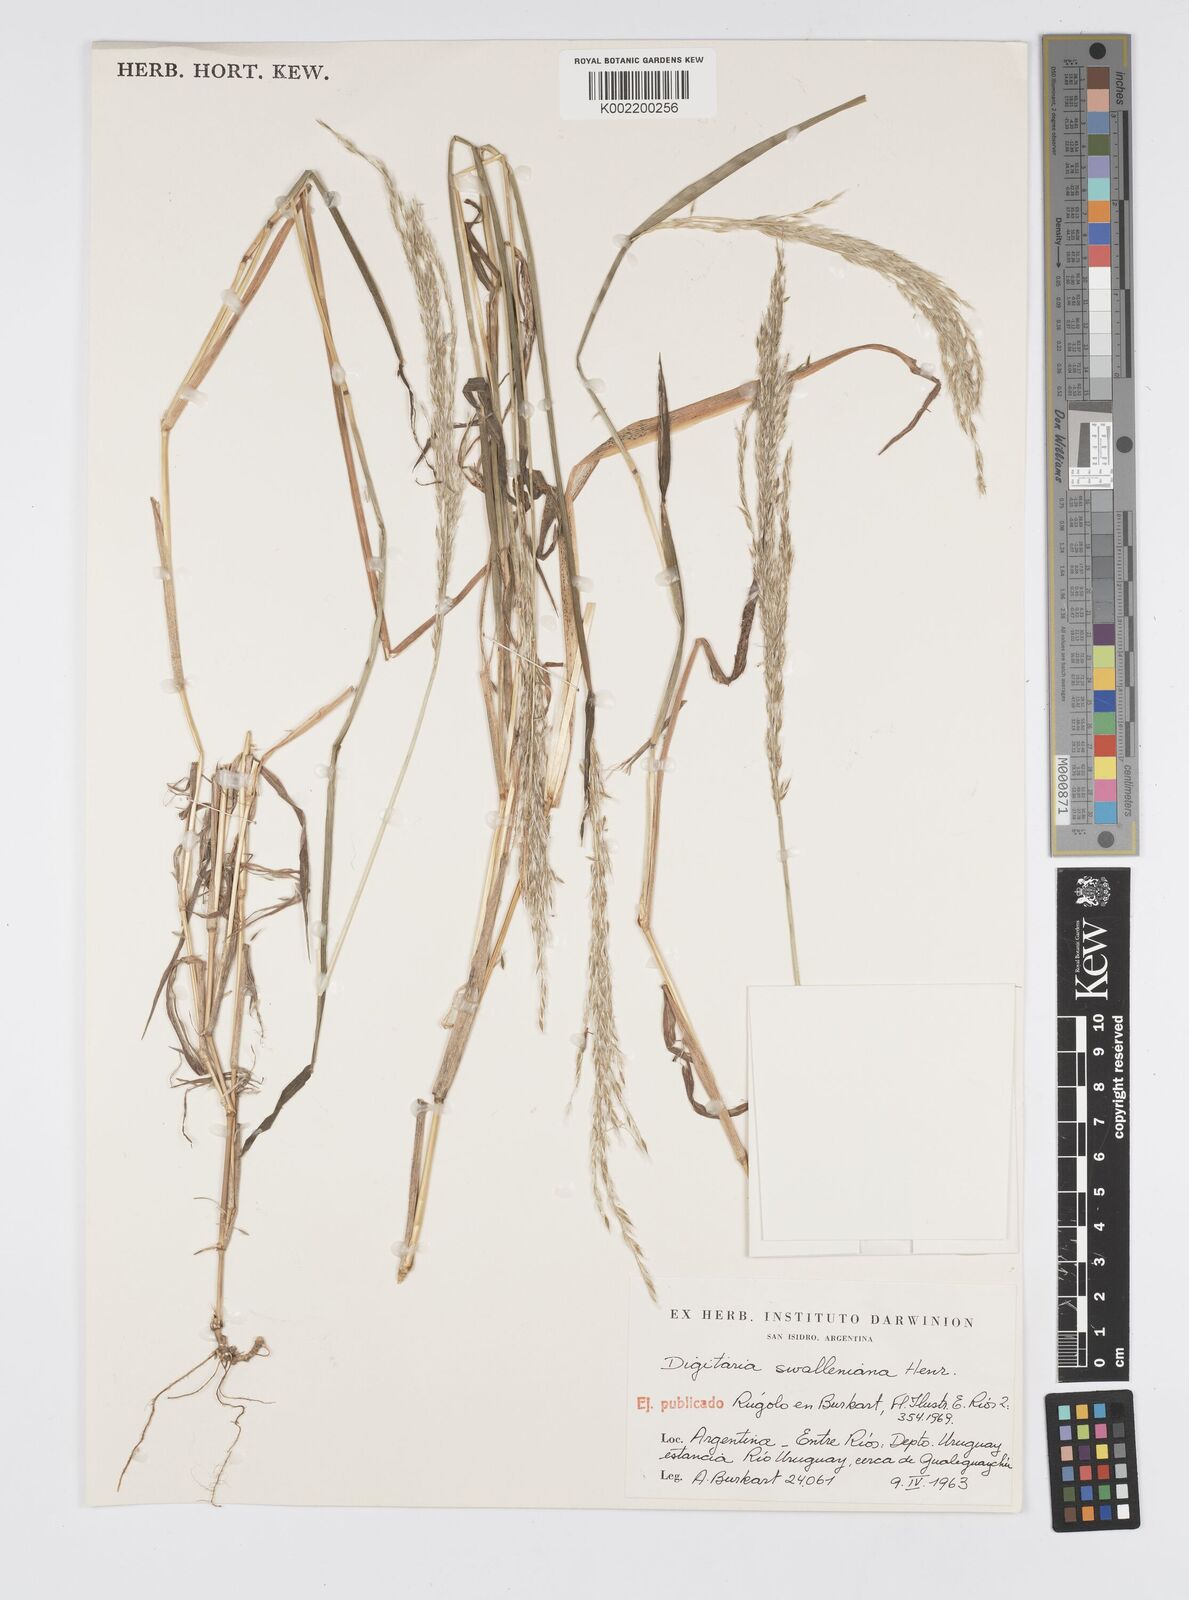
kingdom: Plantae
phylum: Tracheophyta
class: Liliopsida
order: Poales
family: Poaceae
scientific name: Poaceae
